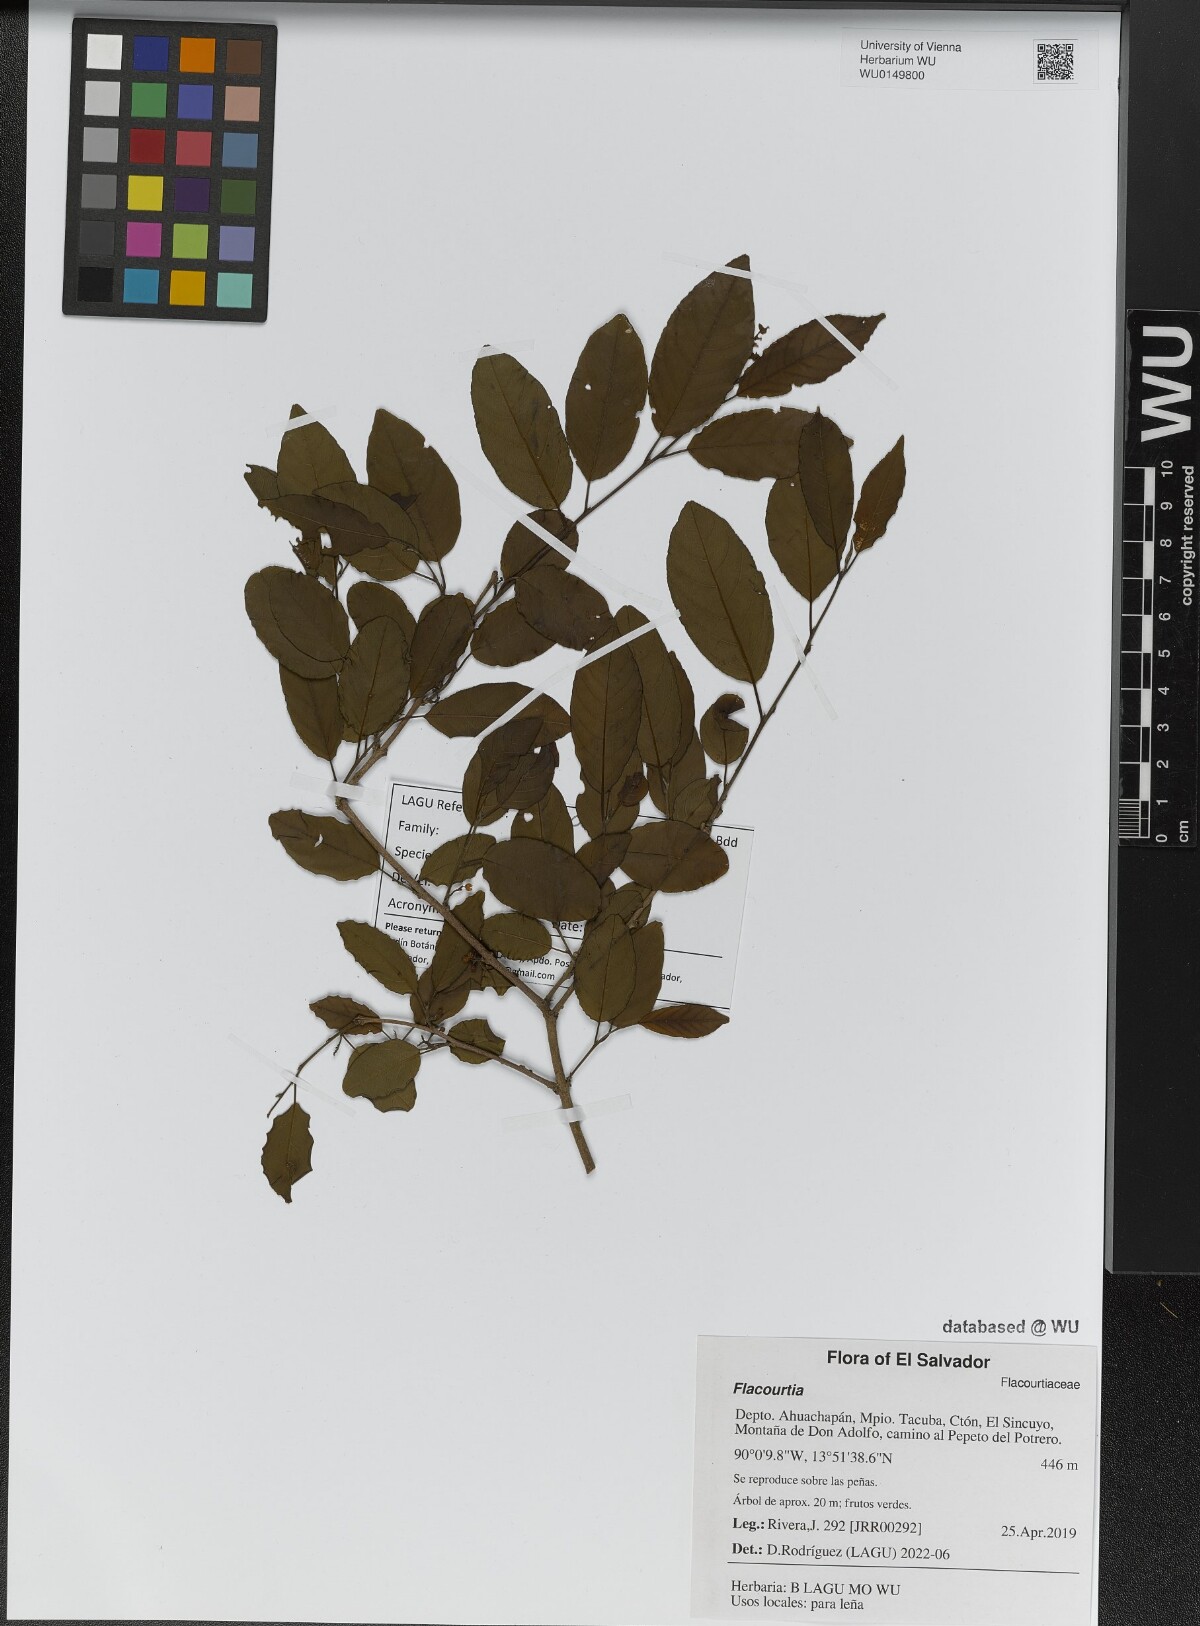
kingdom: Plantae
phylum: Tracheophyta
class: Magnoliopsida
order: Malpighiales
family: Salicaceae
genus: Flacourtia
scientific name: Flacourtia
